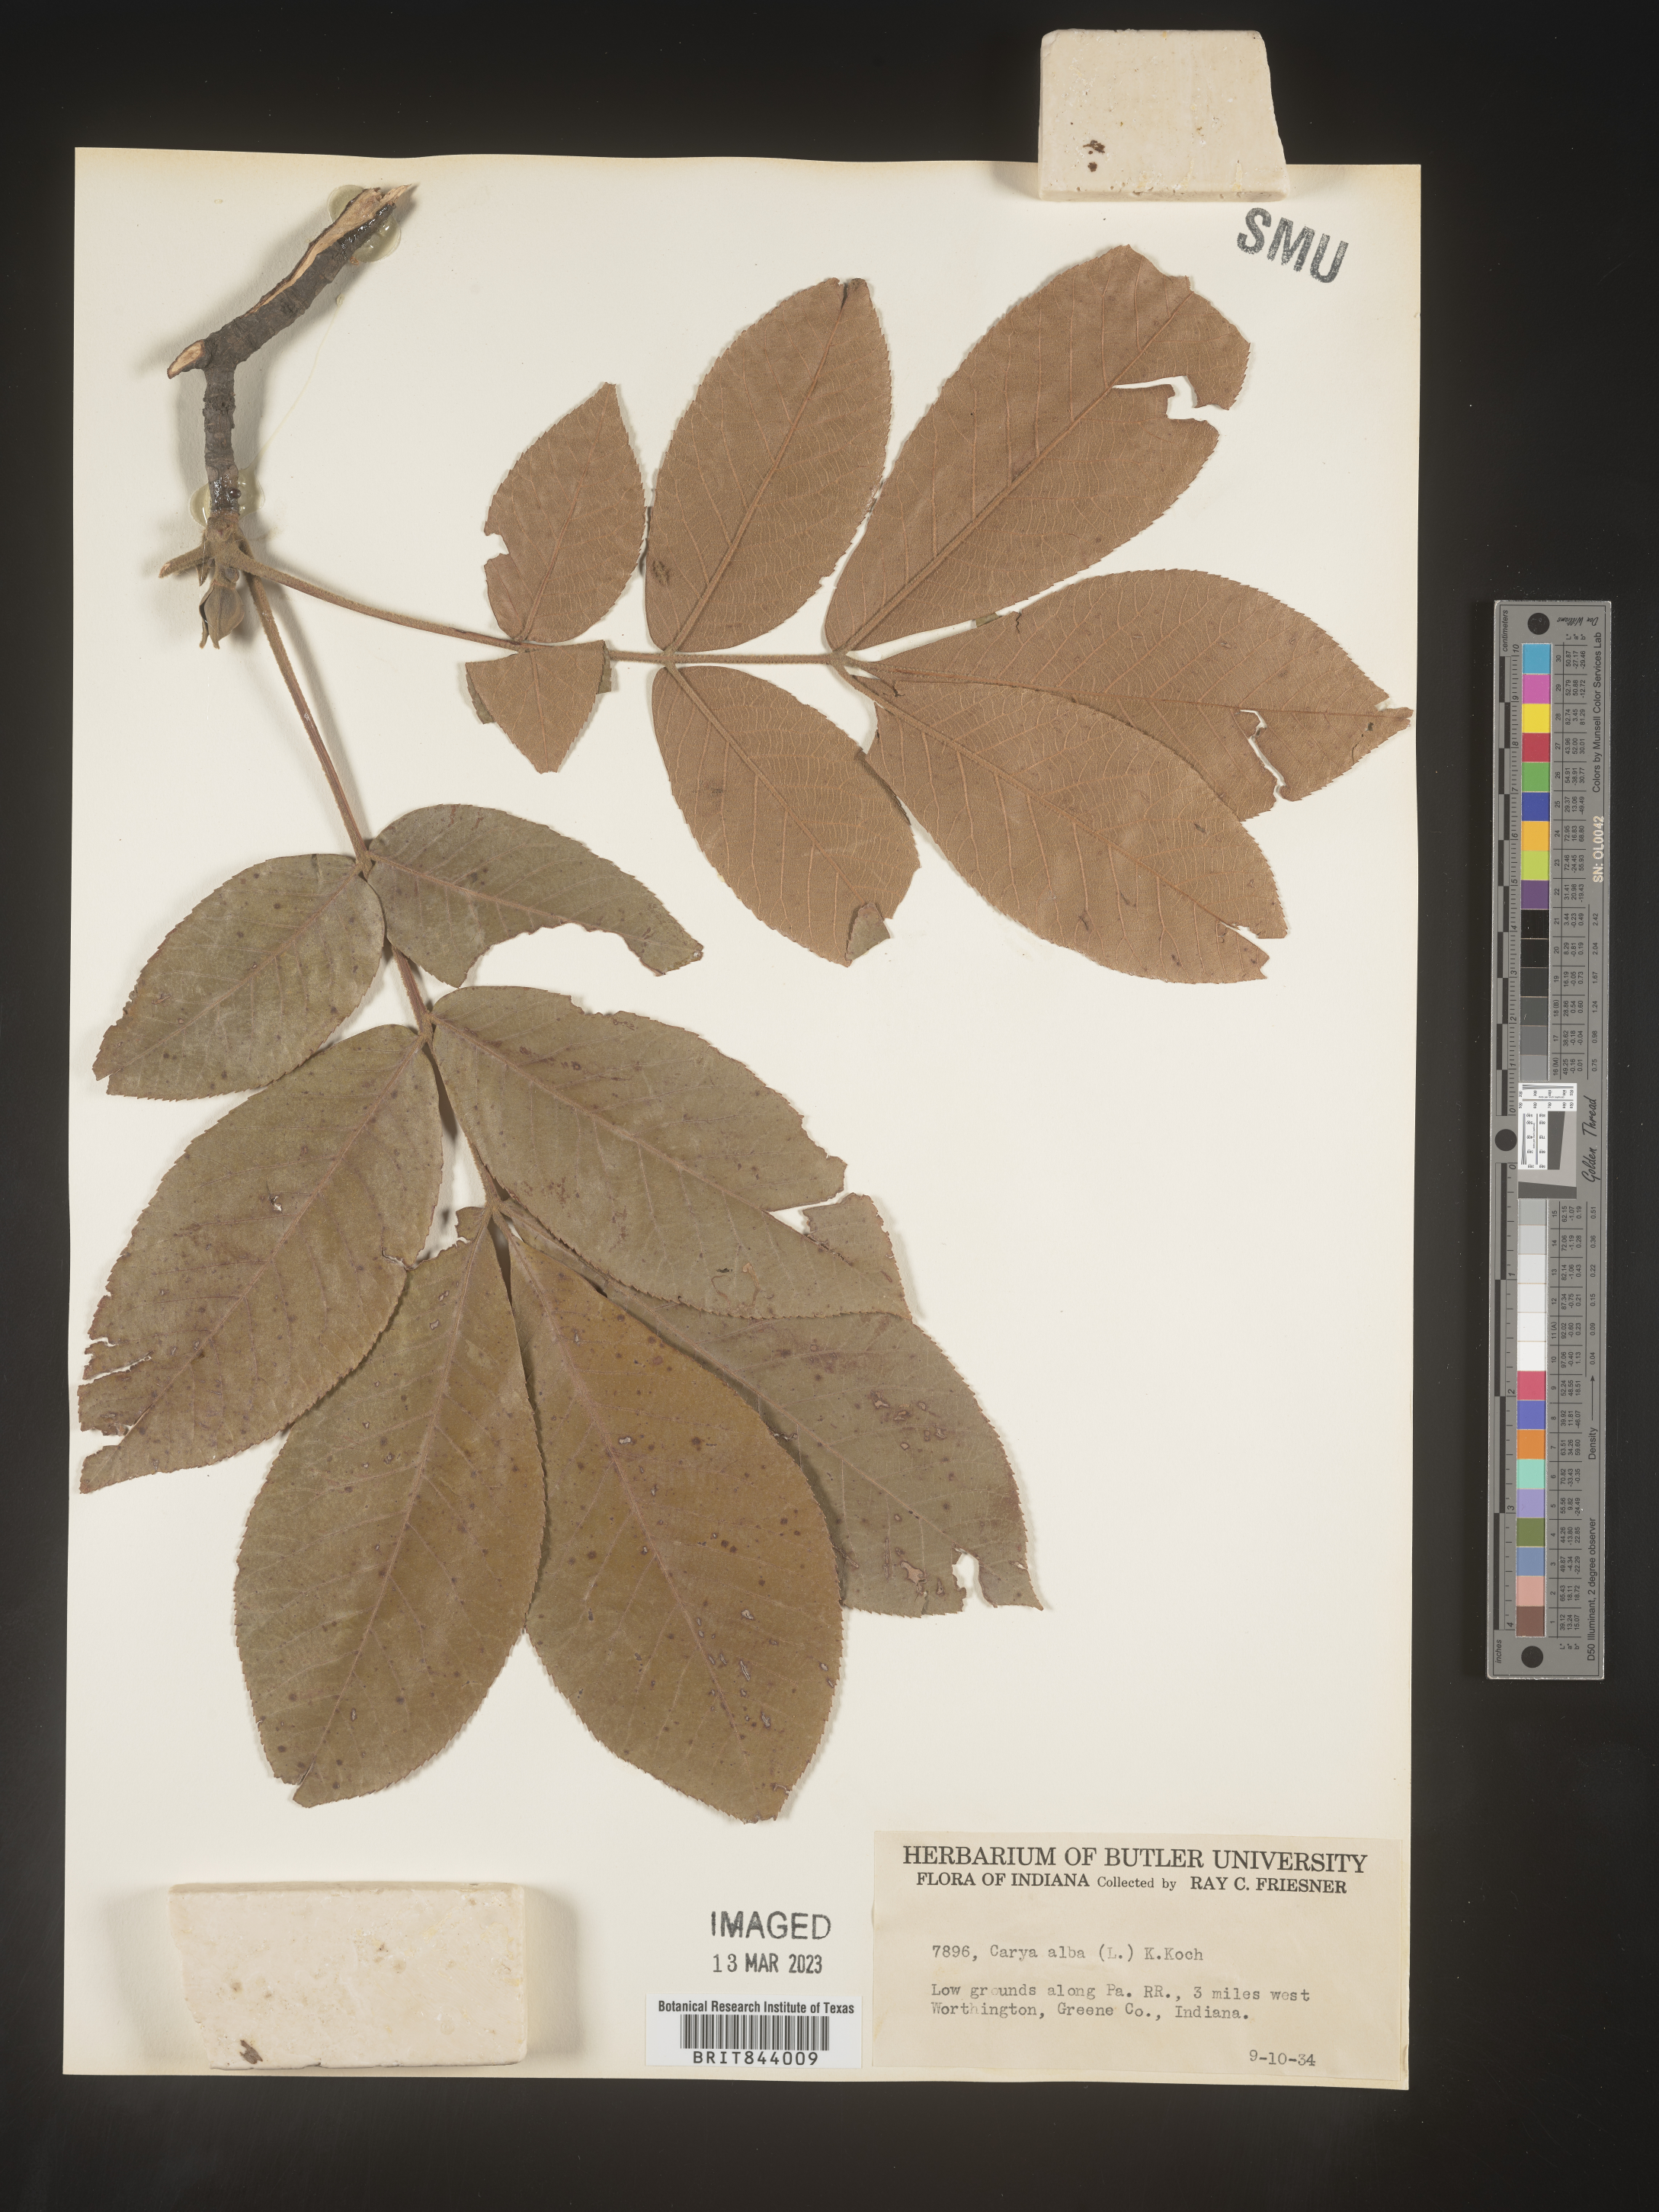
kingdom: Plantae
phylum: Tracheophyta
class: Magnoliopsida
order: Fagales
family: Juglandaceae
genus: Carya
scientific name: Carya alba
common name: Mockernut hickory
